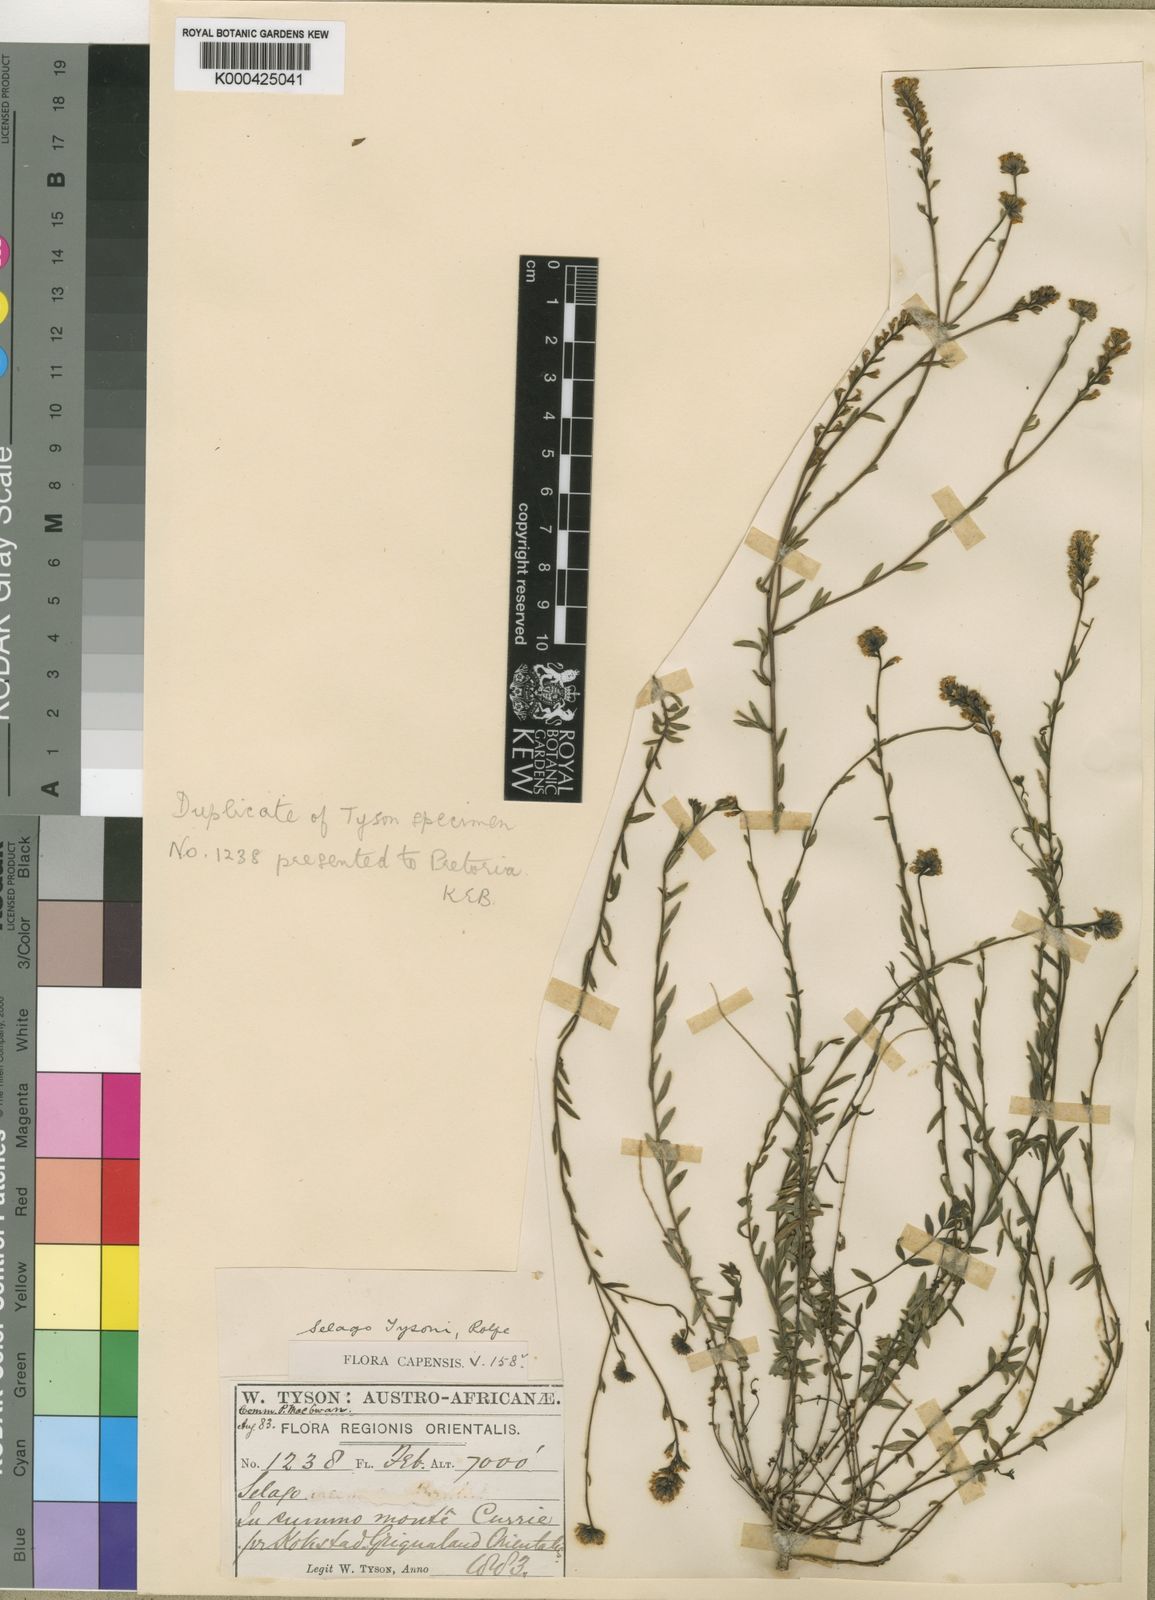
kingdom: Plantae
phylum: Tracheophyta
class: Magnoliopsida
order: Lamiales
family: Scrophulariaceae
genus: Selago
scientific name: Selago trinervia
